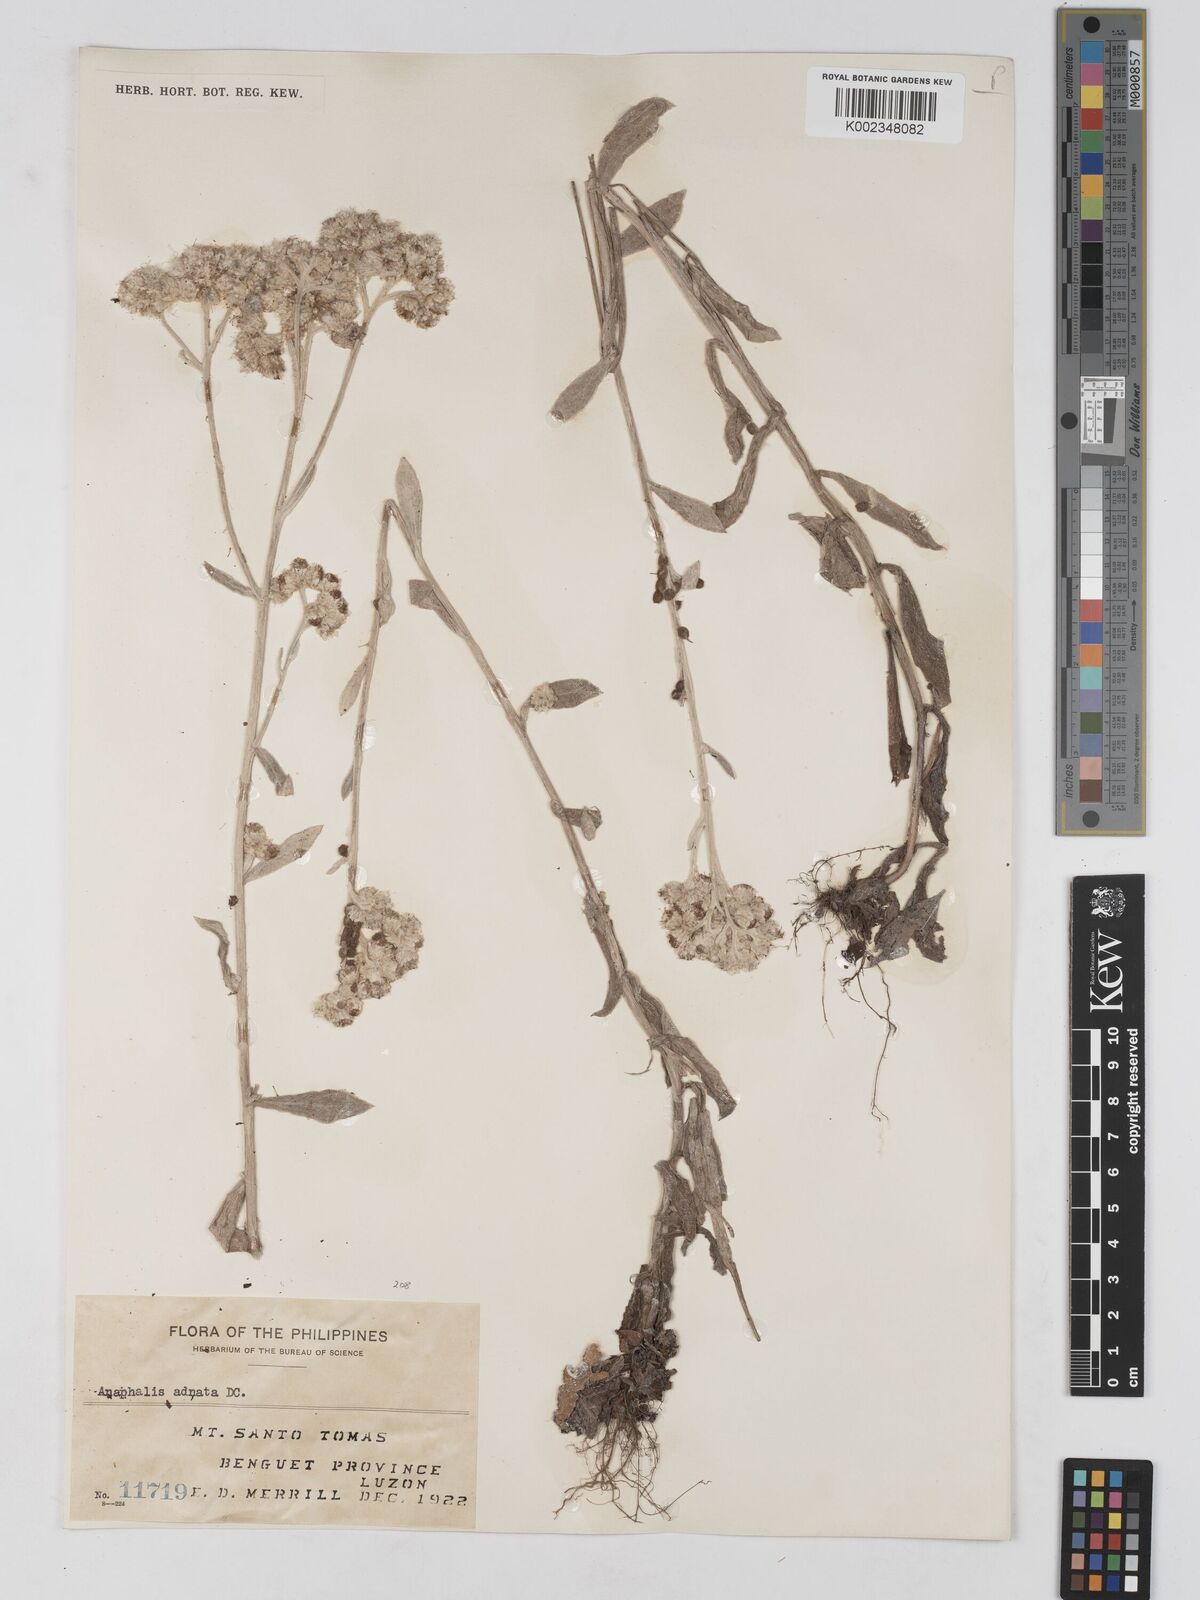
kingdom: Plantae
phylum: Tracheophyta
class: Magnoliopsida
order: Asterales
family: Asteraceae
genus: Pseudognaphalium
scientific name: Pseudognaphalium adnatum
